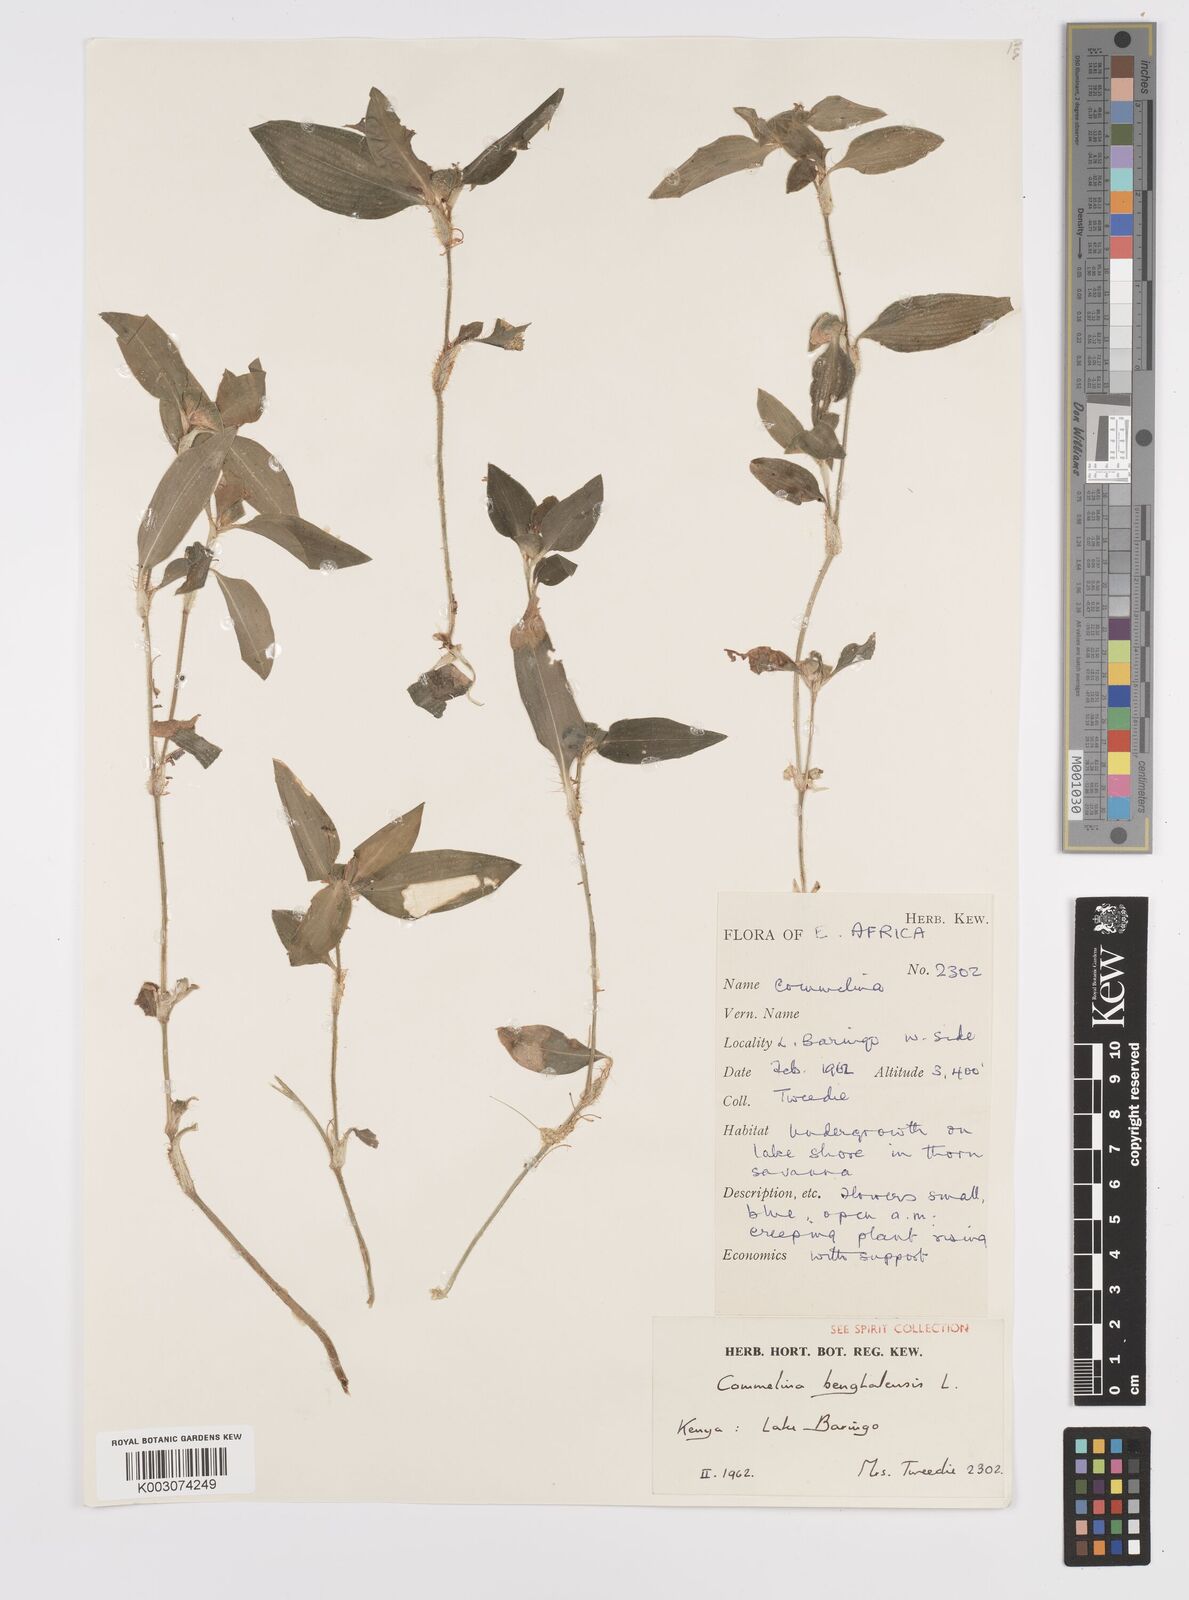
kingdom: Plantae
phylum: Tracheophyta
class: Liliopsida
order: Commelinales
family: Commelinaceae
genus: Commelina
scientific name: Commelina benghalensis
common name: Jio
